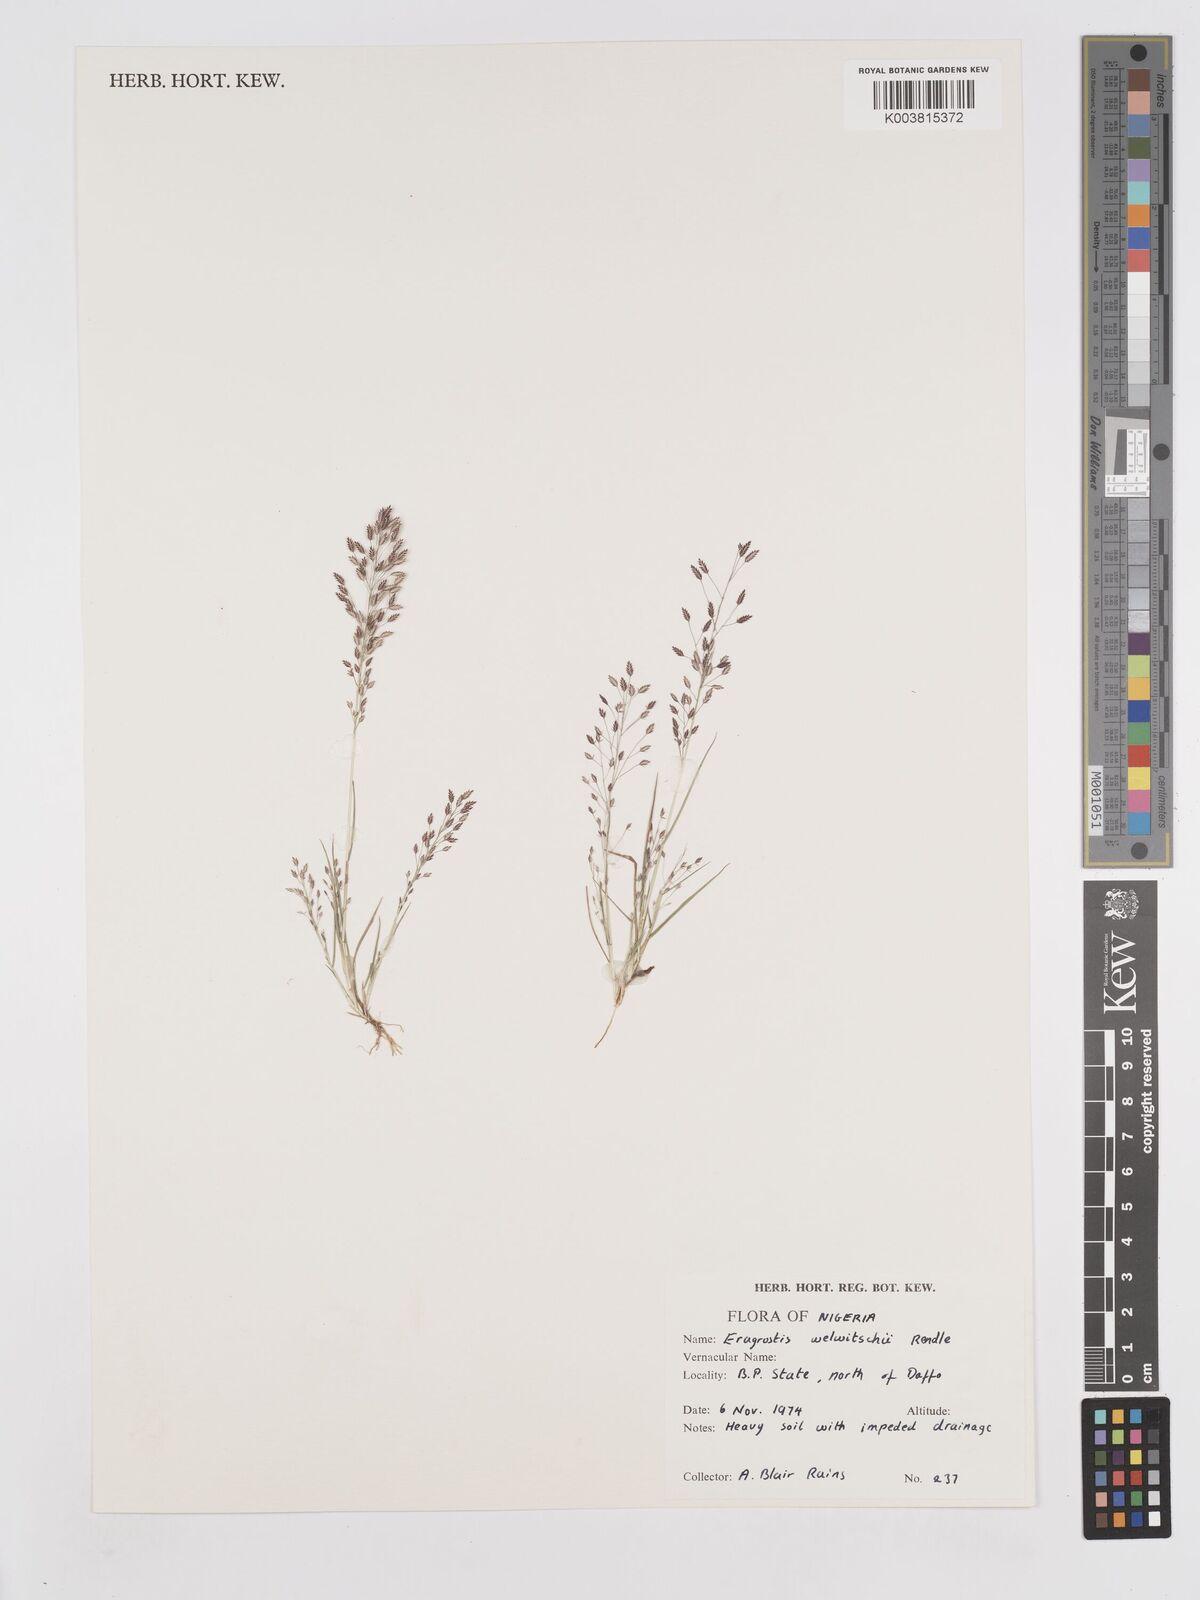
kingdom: Plantae
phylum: Tracheophyta
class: Liliopsida
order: Poales
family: Poaceae
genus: Eragrostis
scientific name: Eragrostis welwitschii
